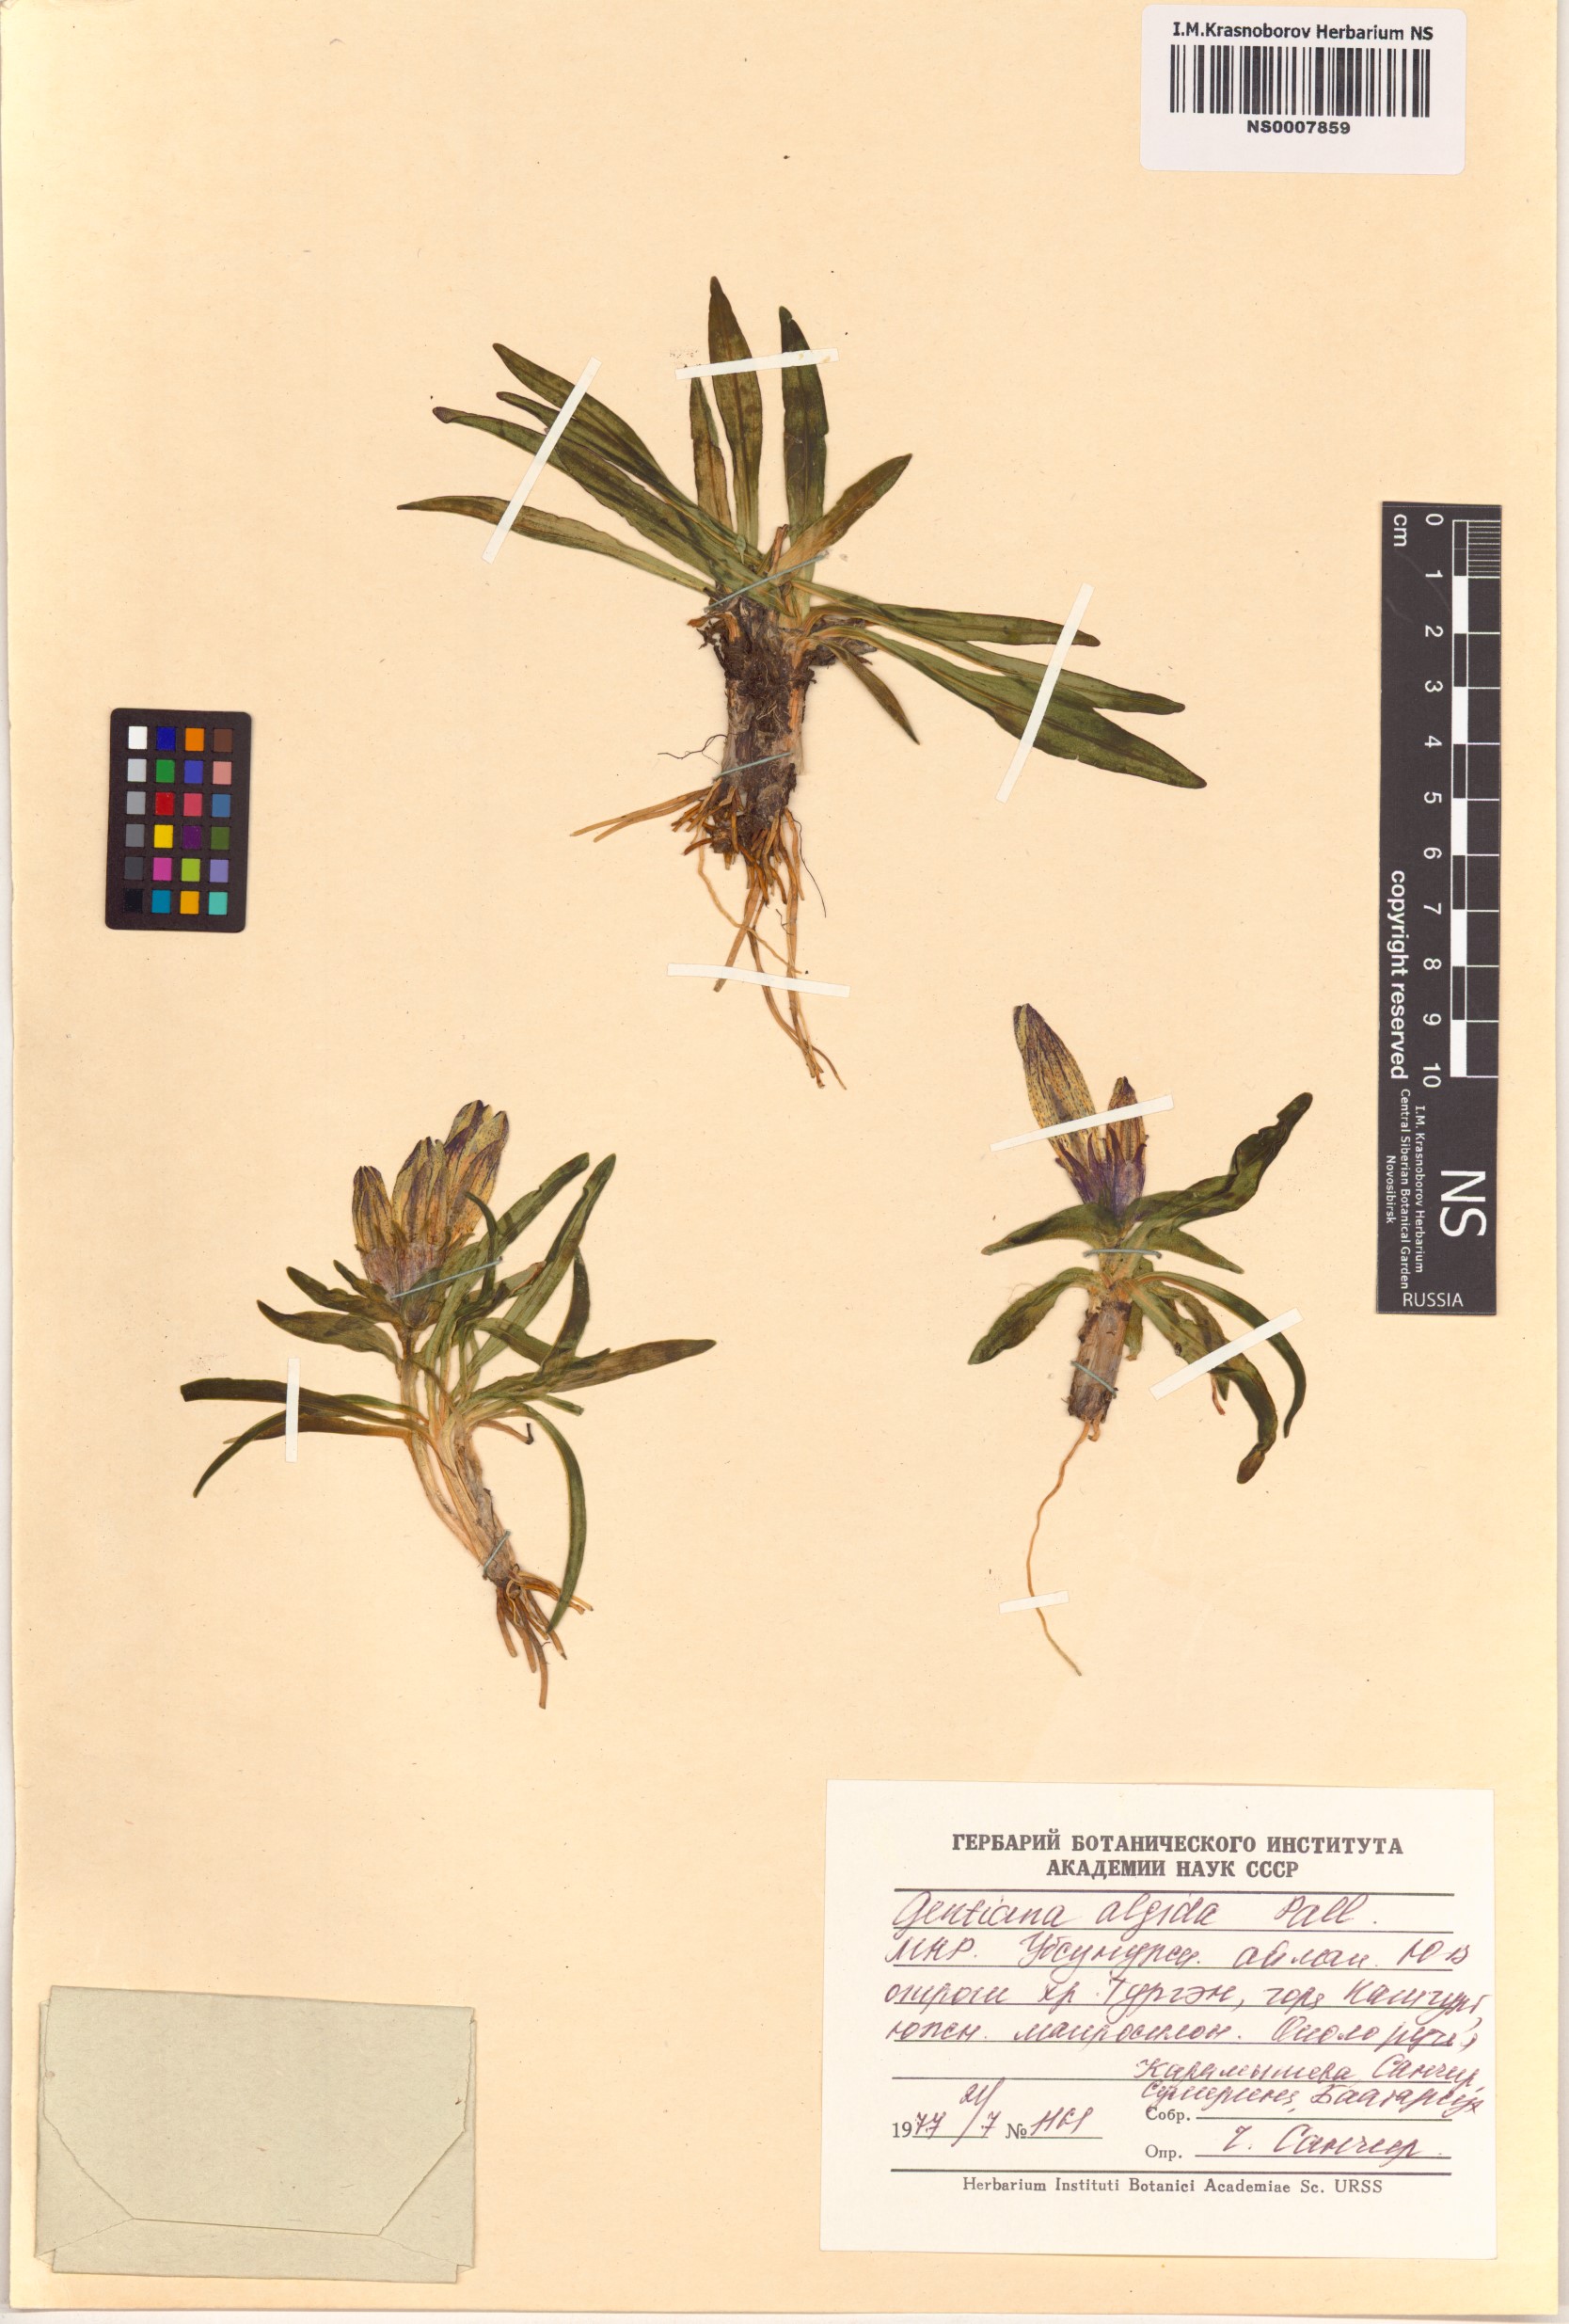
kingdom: Plantae
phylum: Tracheophyta
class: Magnoliopsida
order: Gentianales
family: Gentianaceae
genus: Gentiana
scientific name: Gentiana algida
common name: Arctic gentian
